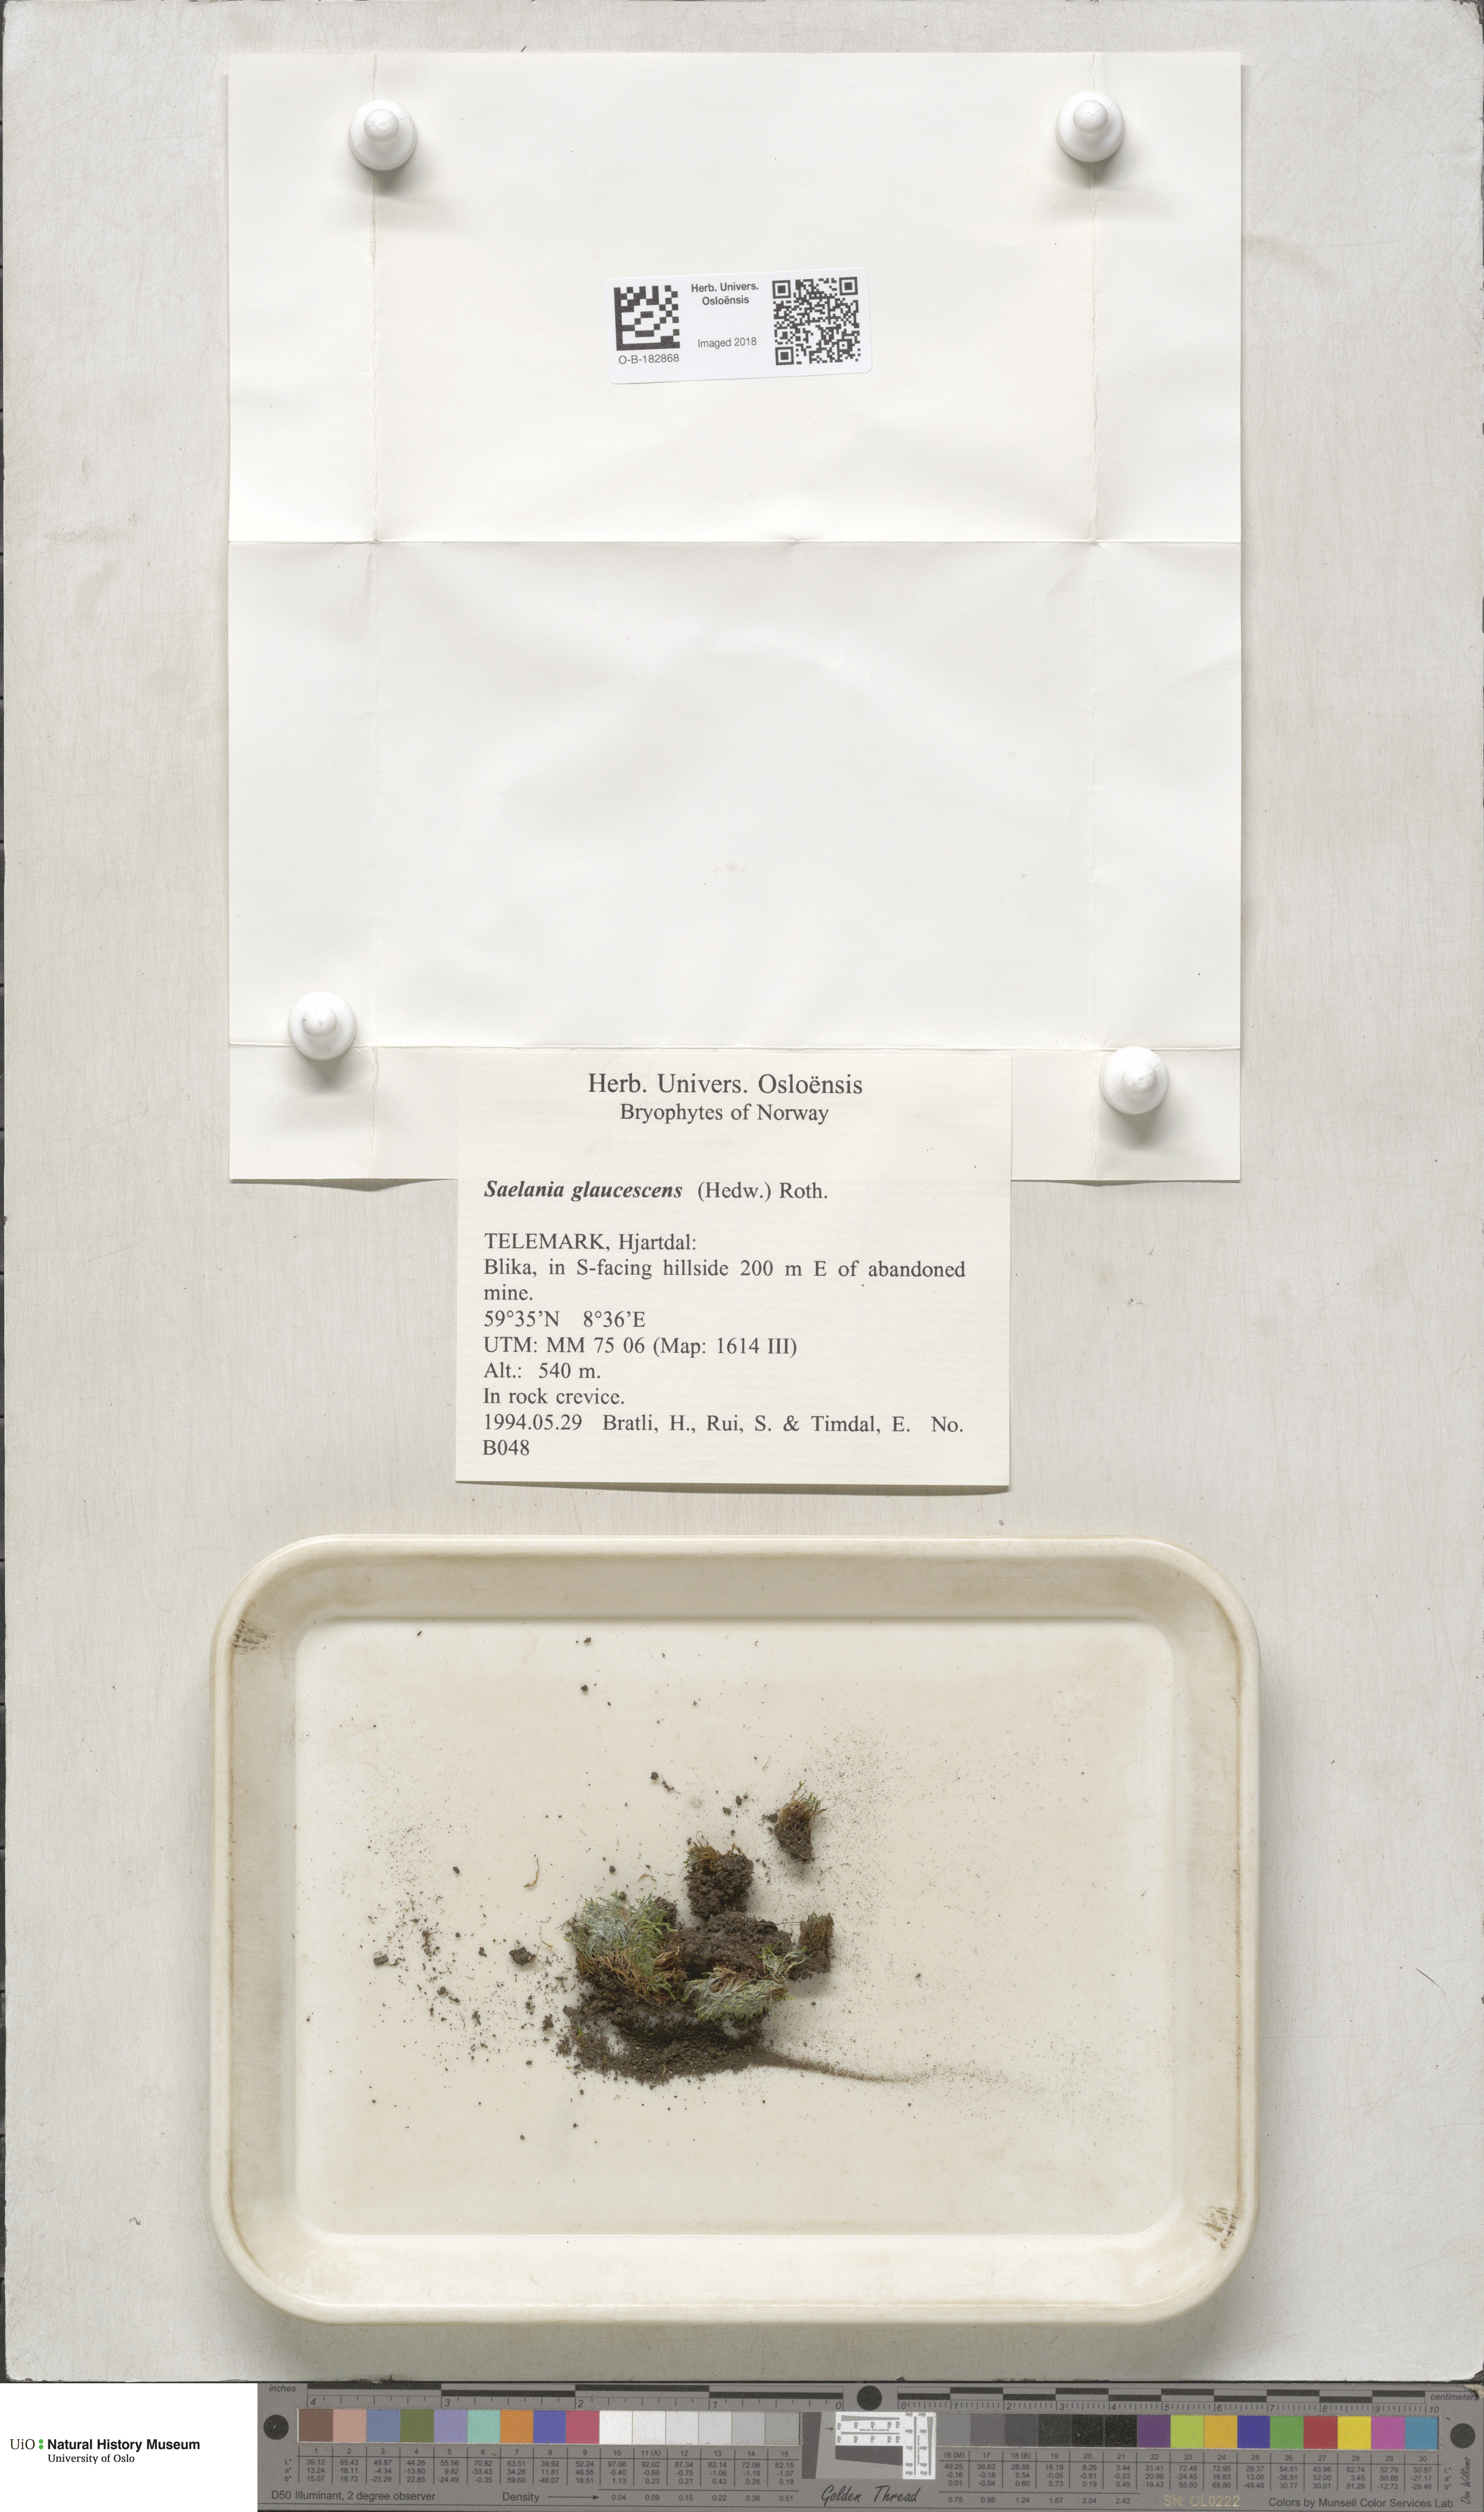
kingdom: Plantae
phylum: Bryophyta
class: Bryopsida
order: Grimmiales
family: Saelaniaceae
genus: Saelania
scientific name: Saelania glaucescens
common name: Blue dew-moss
